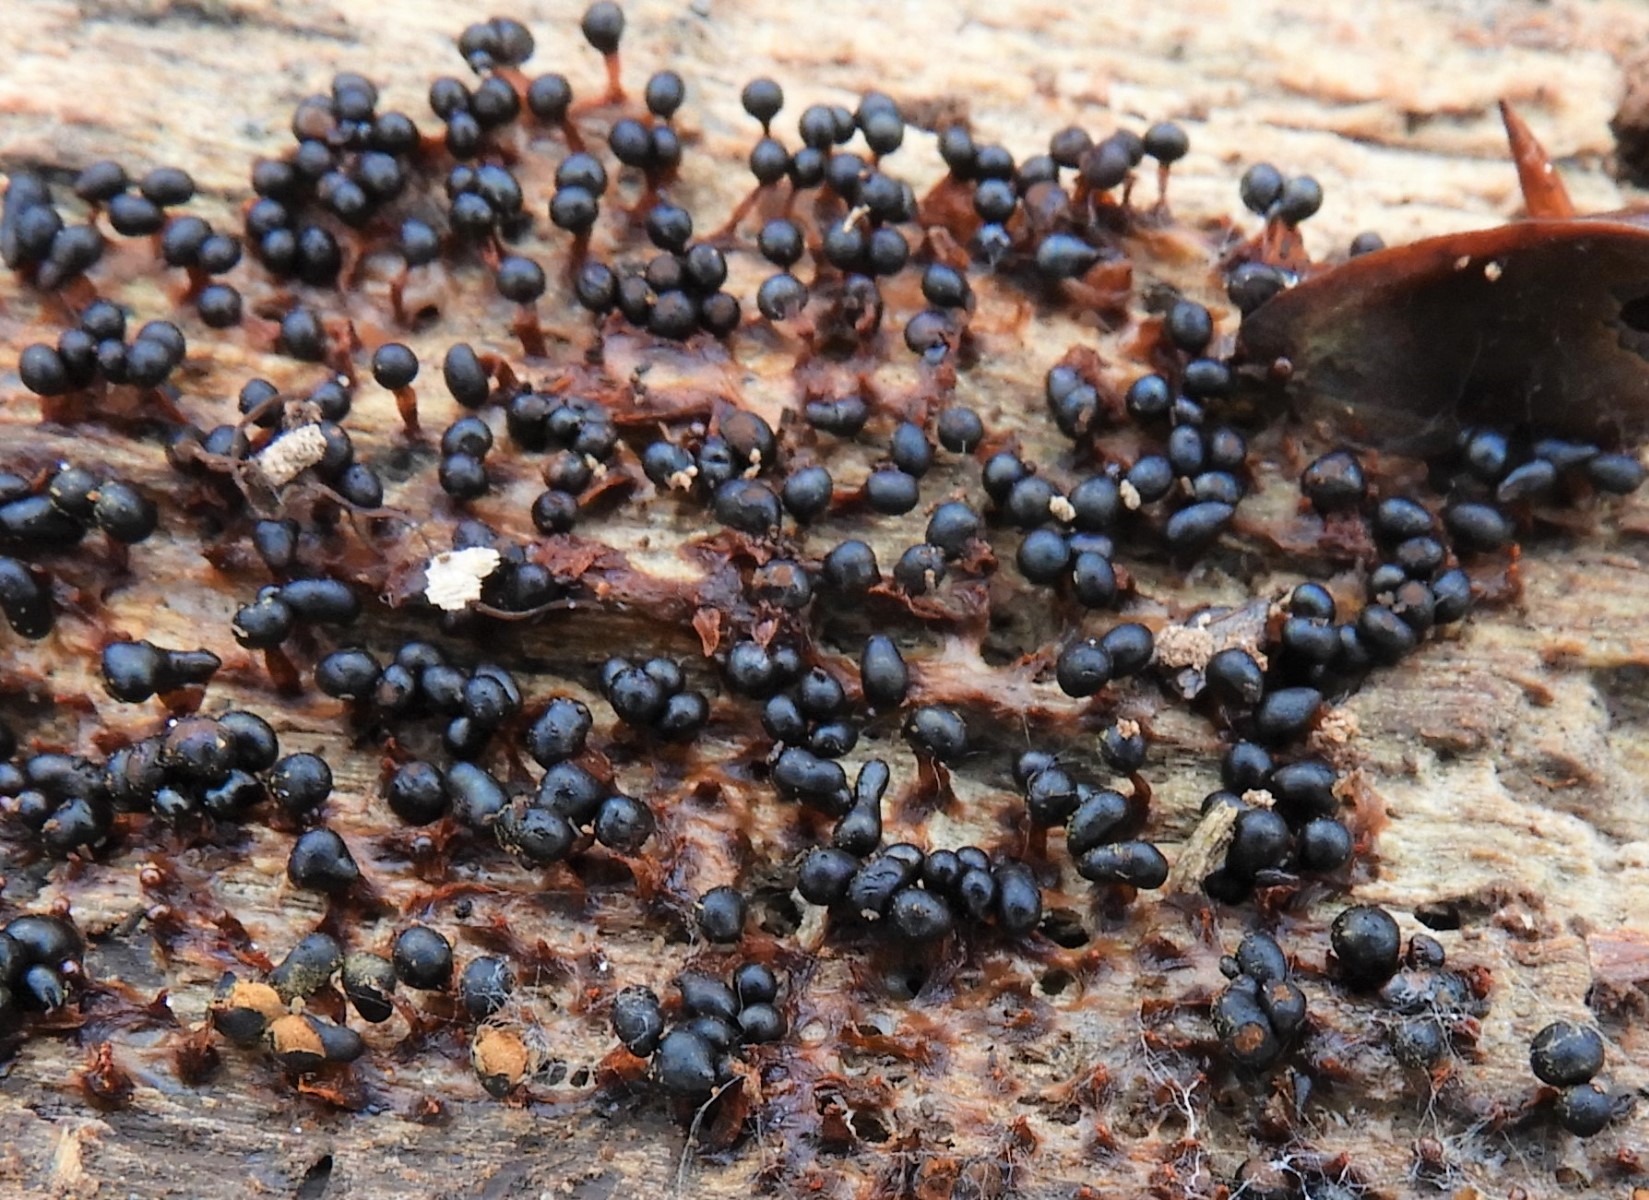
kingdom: Protozoa
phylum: Mycetozoa
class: Myxomycetes
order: Trichiales
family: Trichiaceae
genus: Metatrichia
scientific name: Metatrichia floriformis
